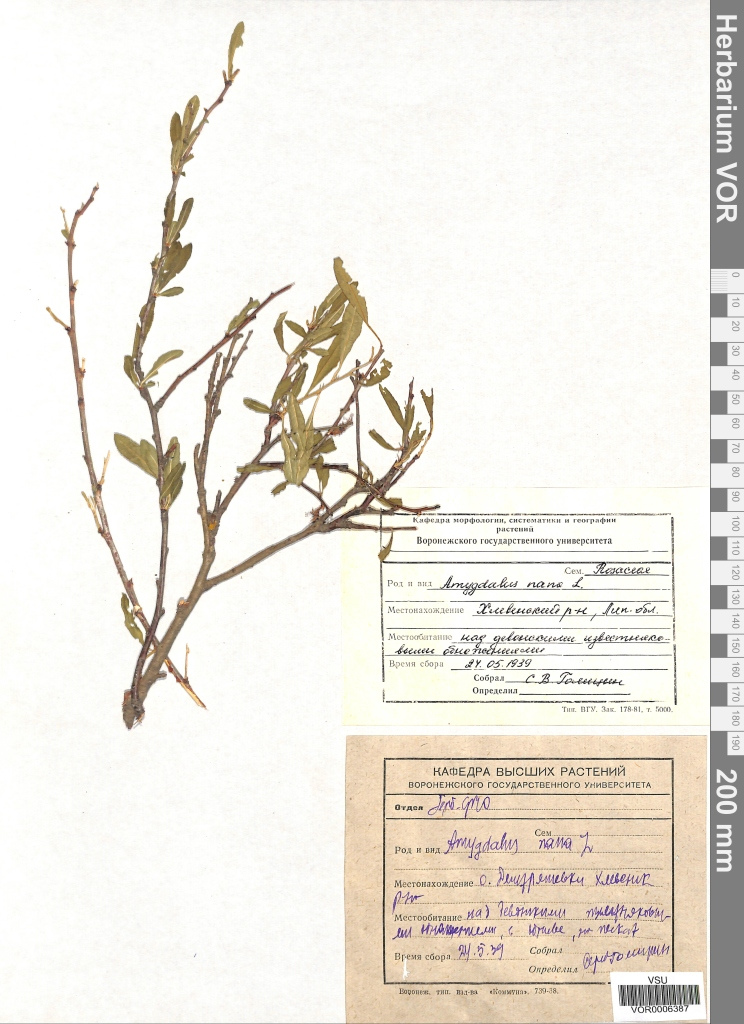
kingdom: Plantae
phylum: Tracheophyta
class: Magnoliopsida
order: Rosales
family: Rosaceae
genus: Prunus
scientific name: Prunus tenella
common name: Dwarf russian almond
